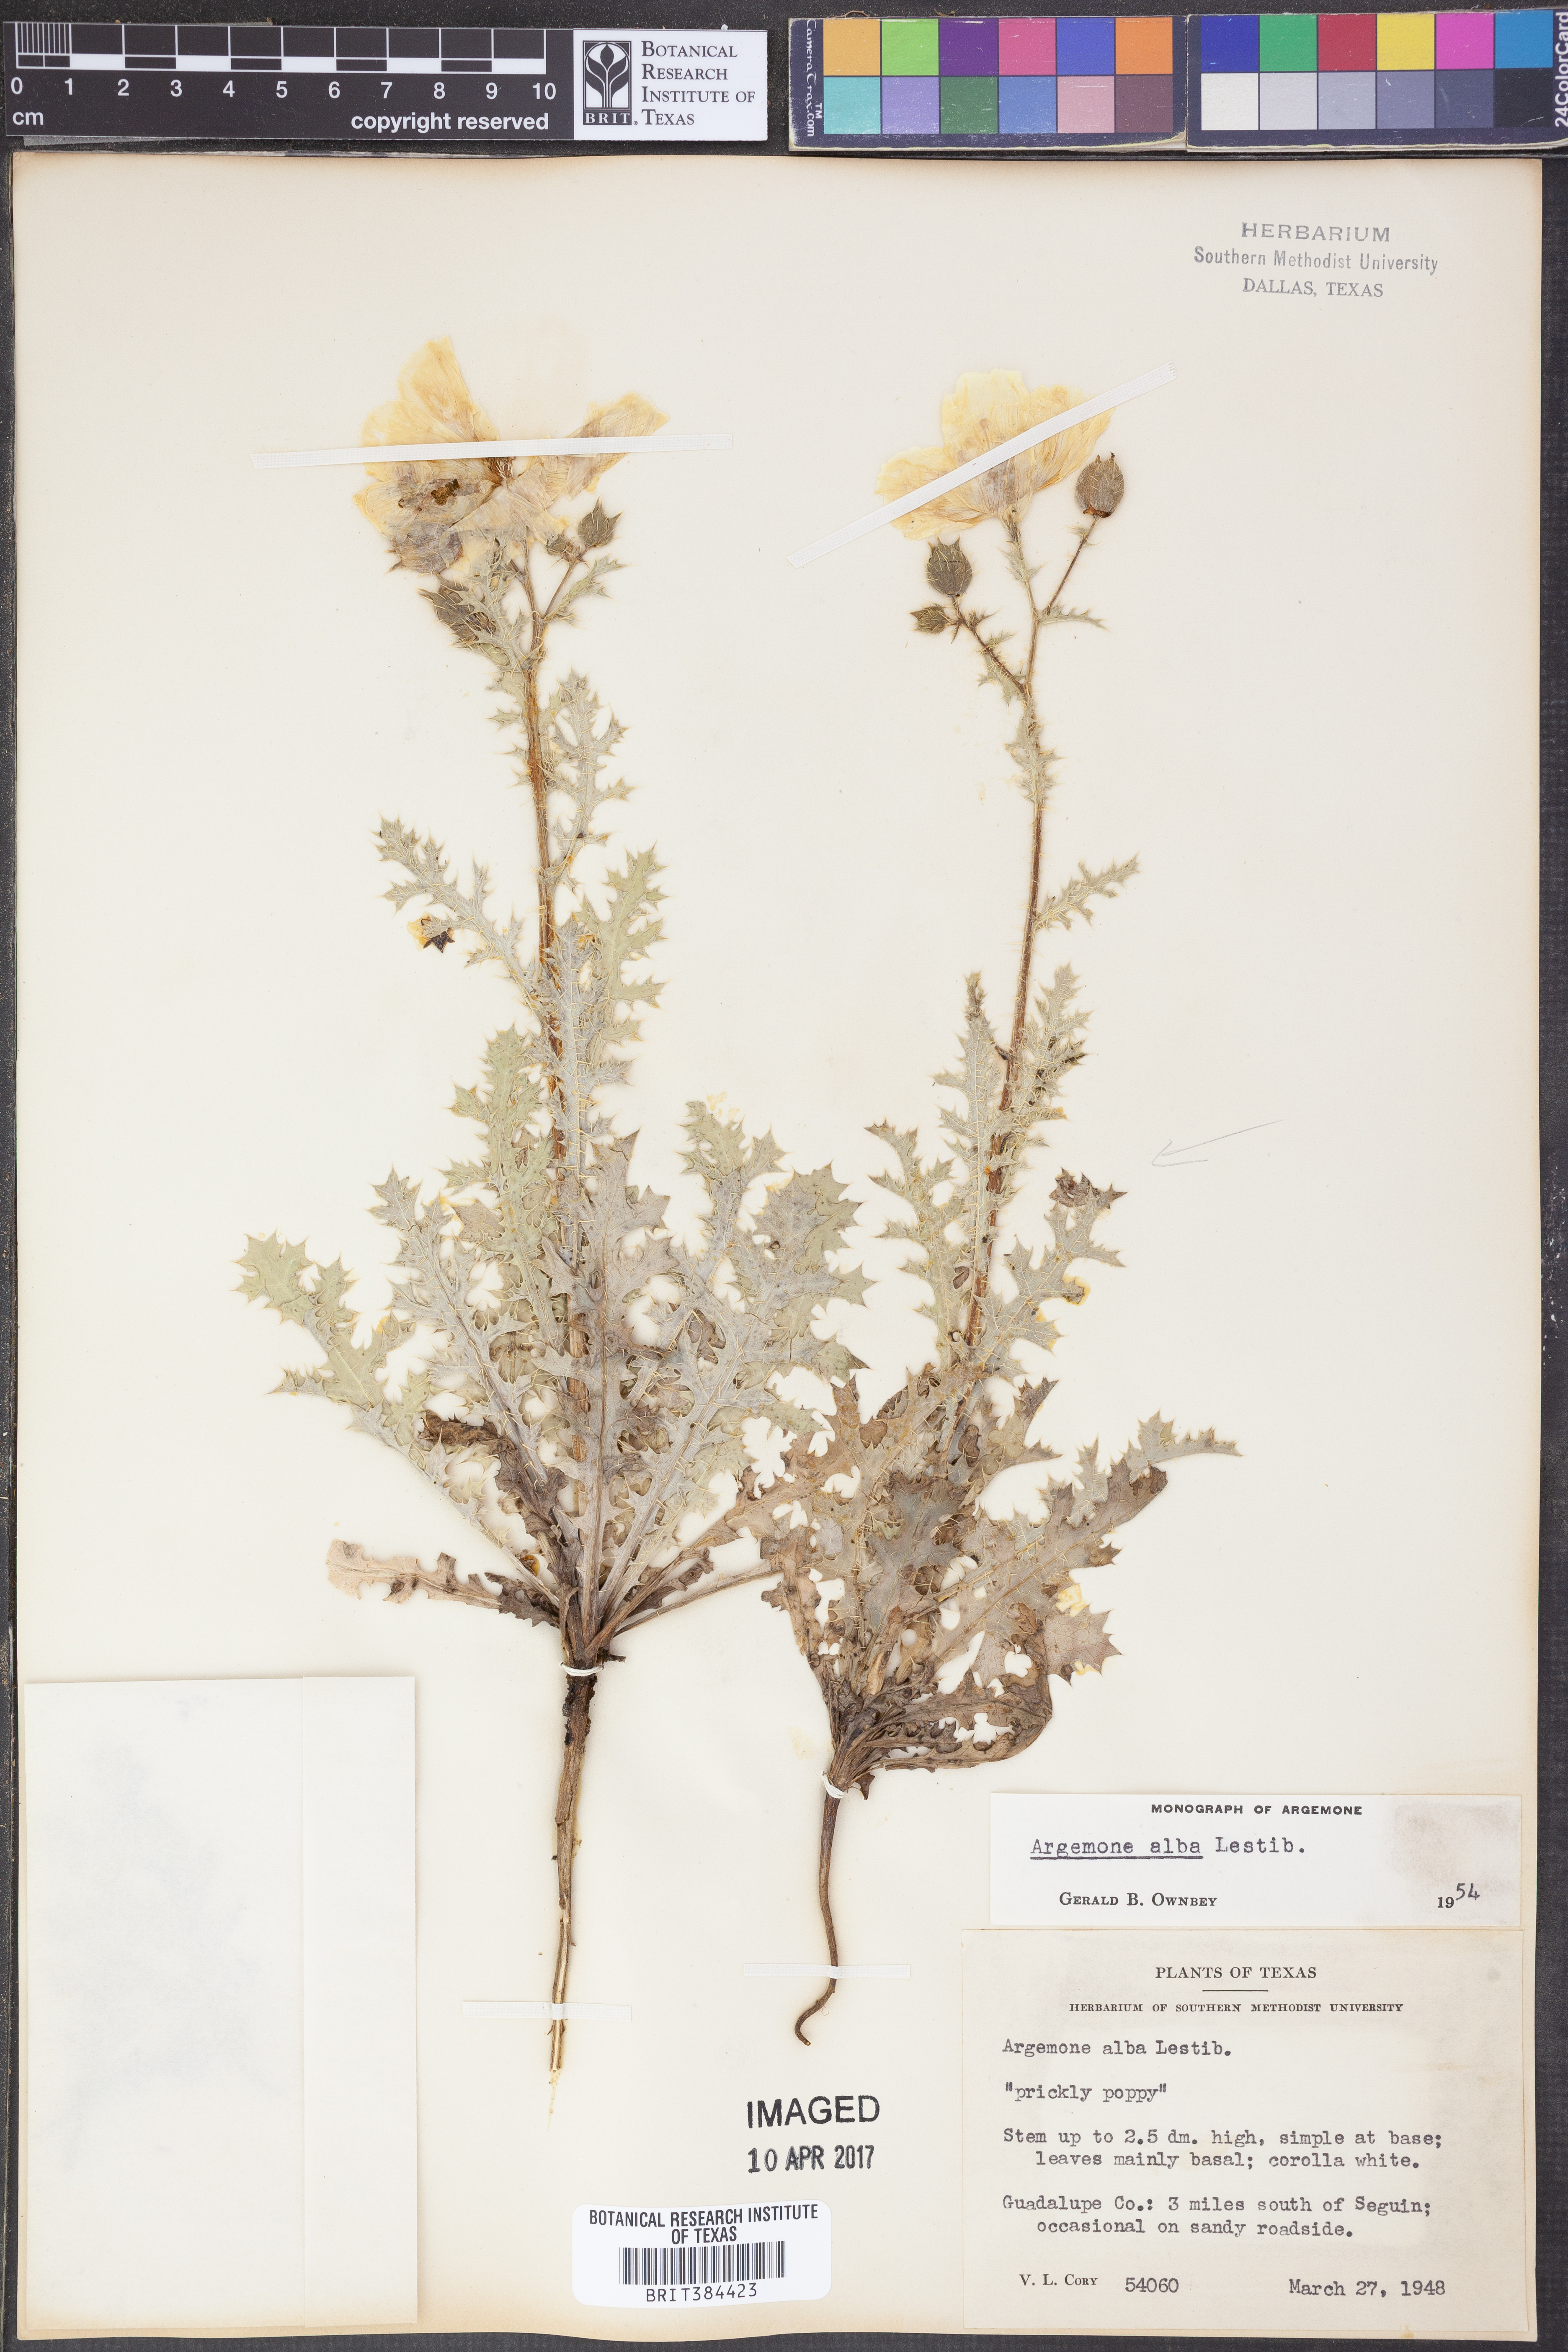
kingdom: Plantae
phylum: Tracheophyta
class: Magnoliopsida
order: Ranunculales
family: Papaveraceae
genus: Argemone
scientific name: Argemone albiflora
